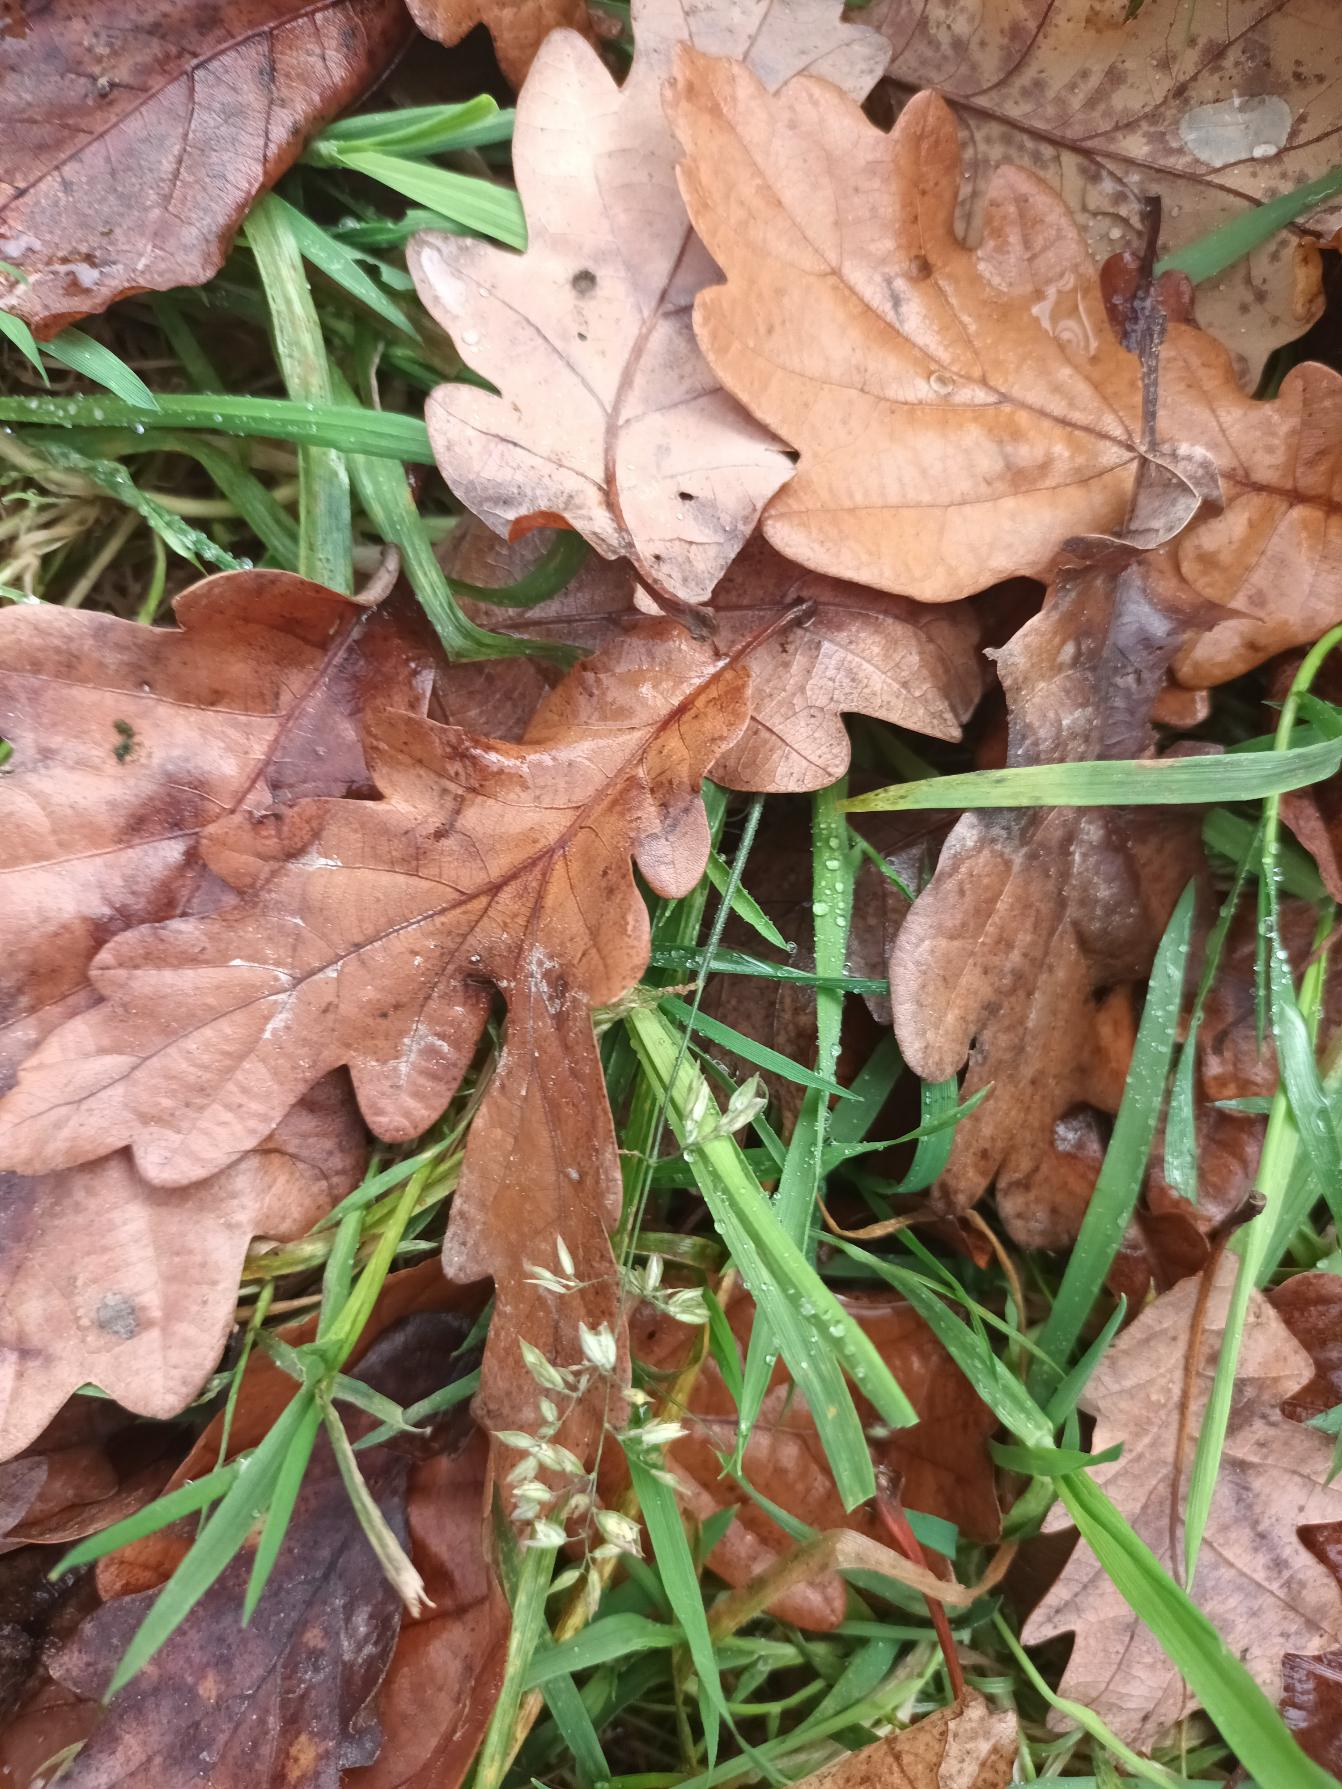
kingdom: Plantae
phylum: Tracheophyta
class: Liliopsida
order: Poales
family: Poaceae
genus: Poa
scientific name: Poa annua
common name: Enårig rapgræs
